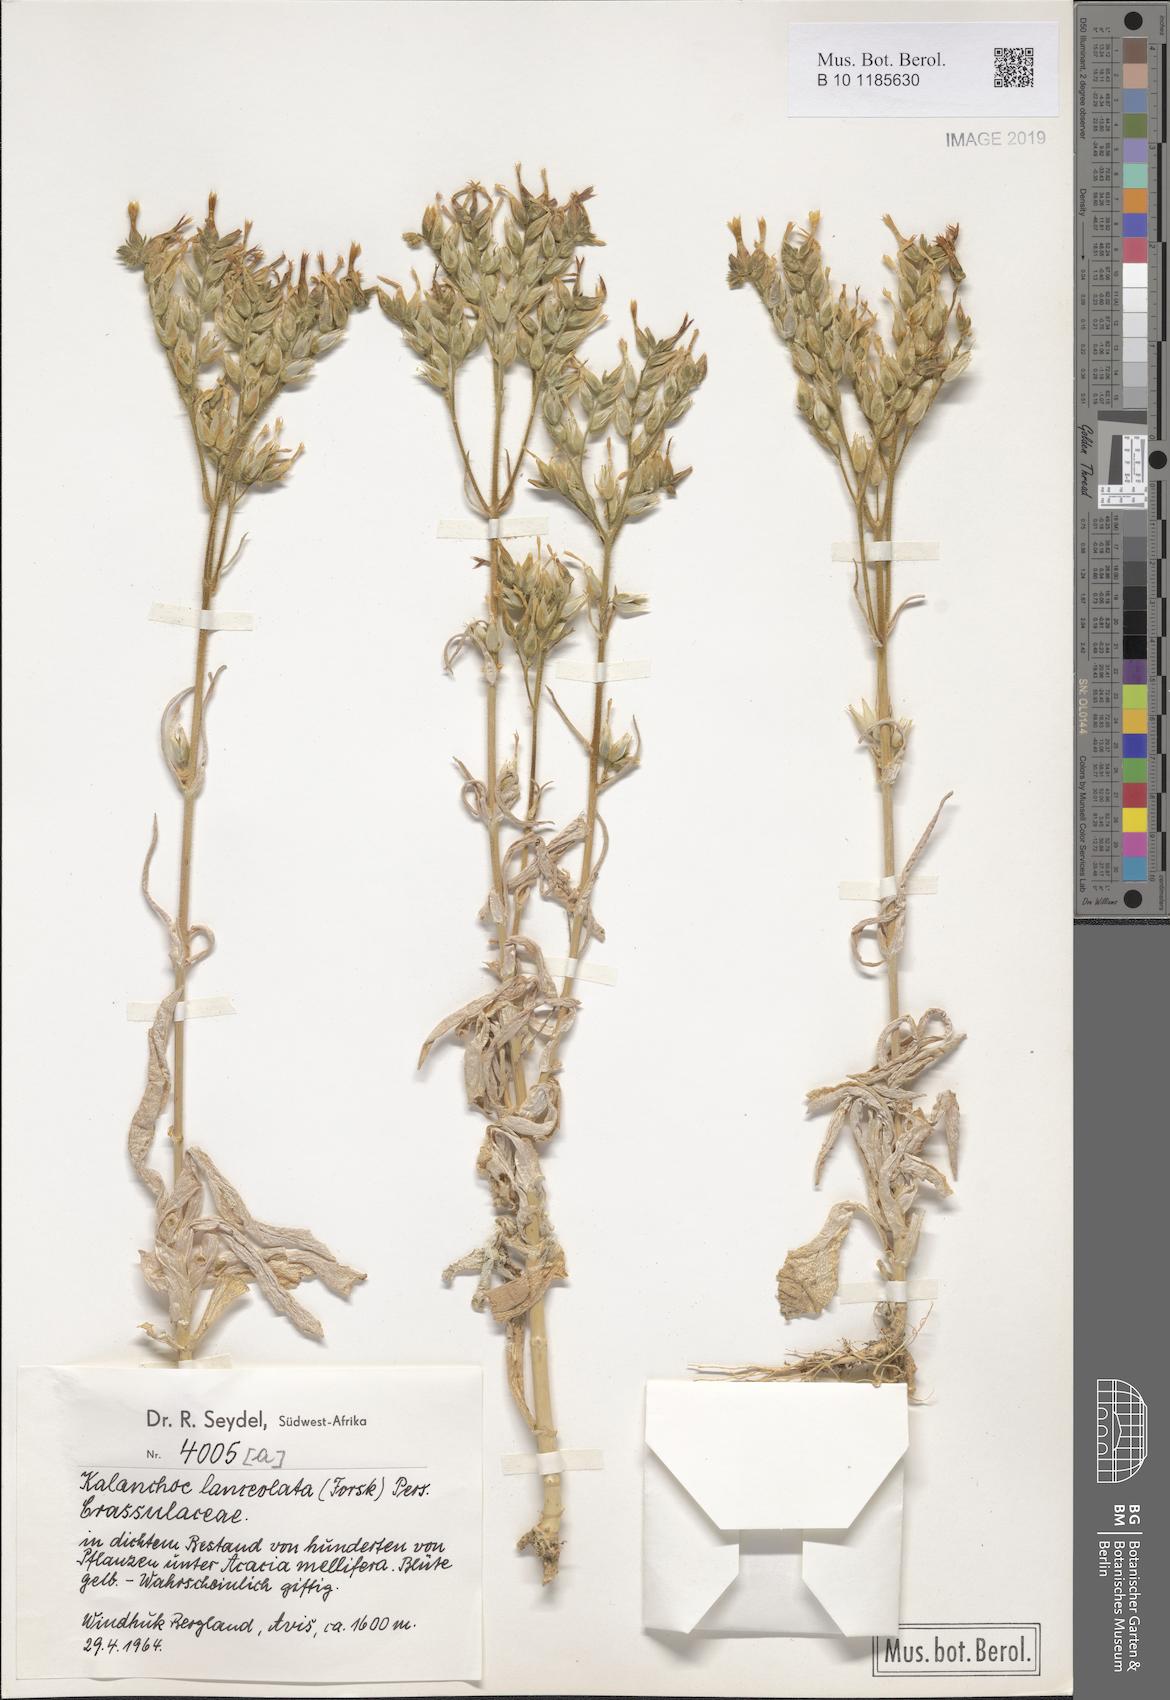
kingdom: Plantae
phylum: Tracheophyta
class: Magnoliopsida
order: Saxifragales
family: Crassulaceae
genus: Kalanchoe
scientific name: Kalanchoe lanceolata
